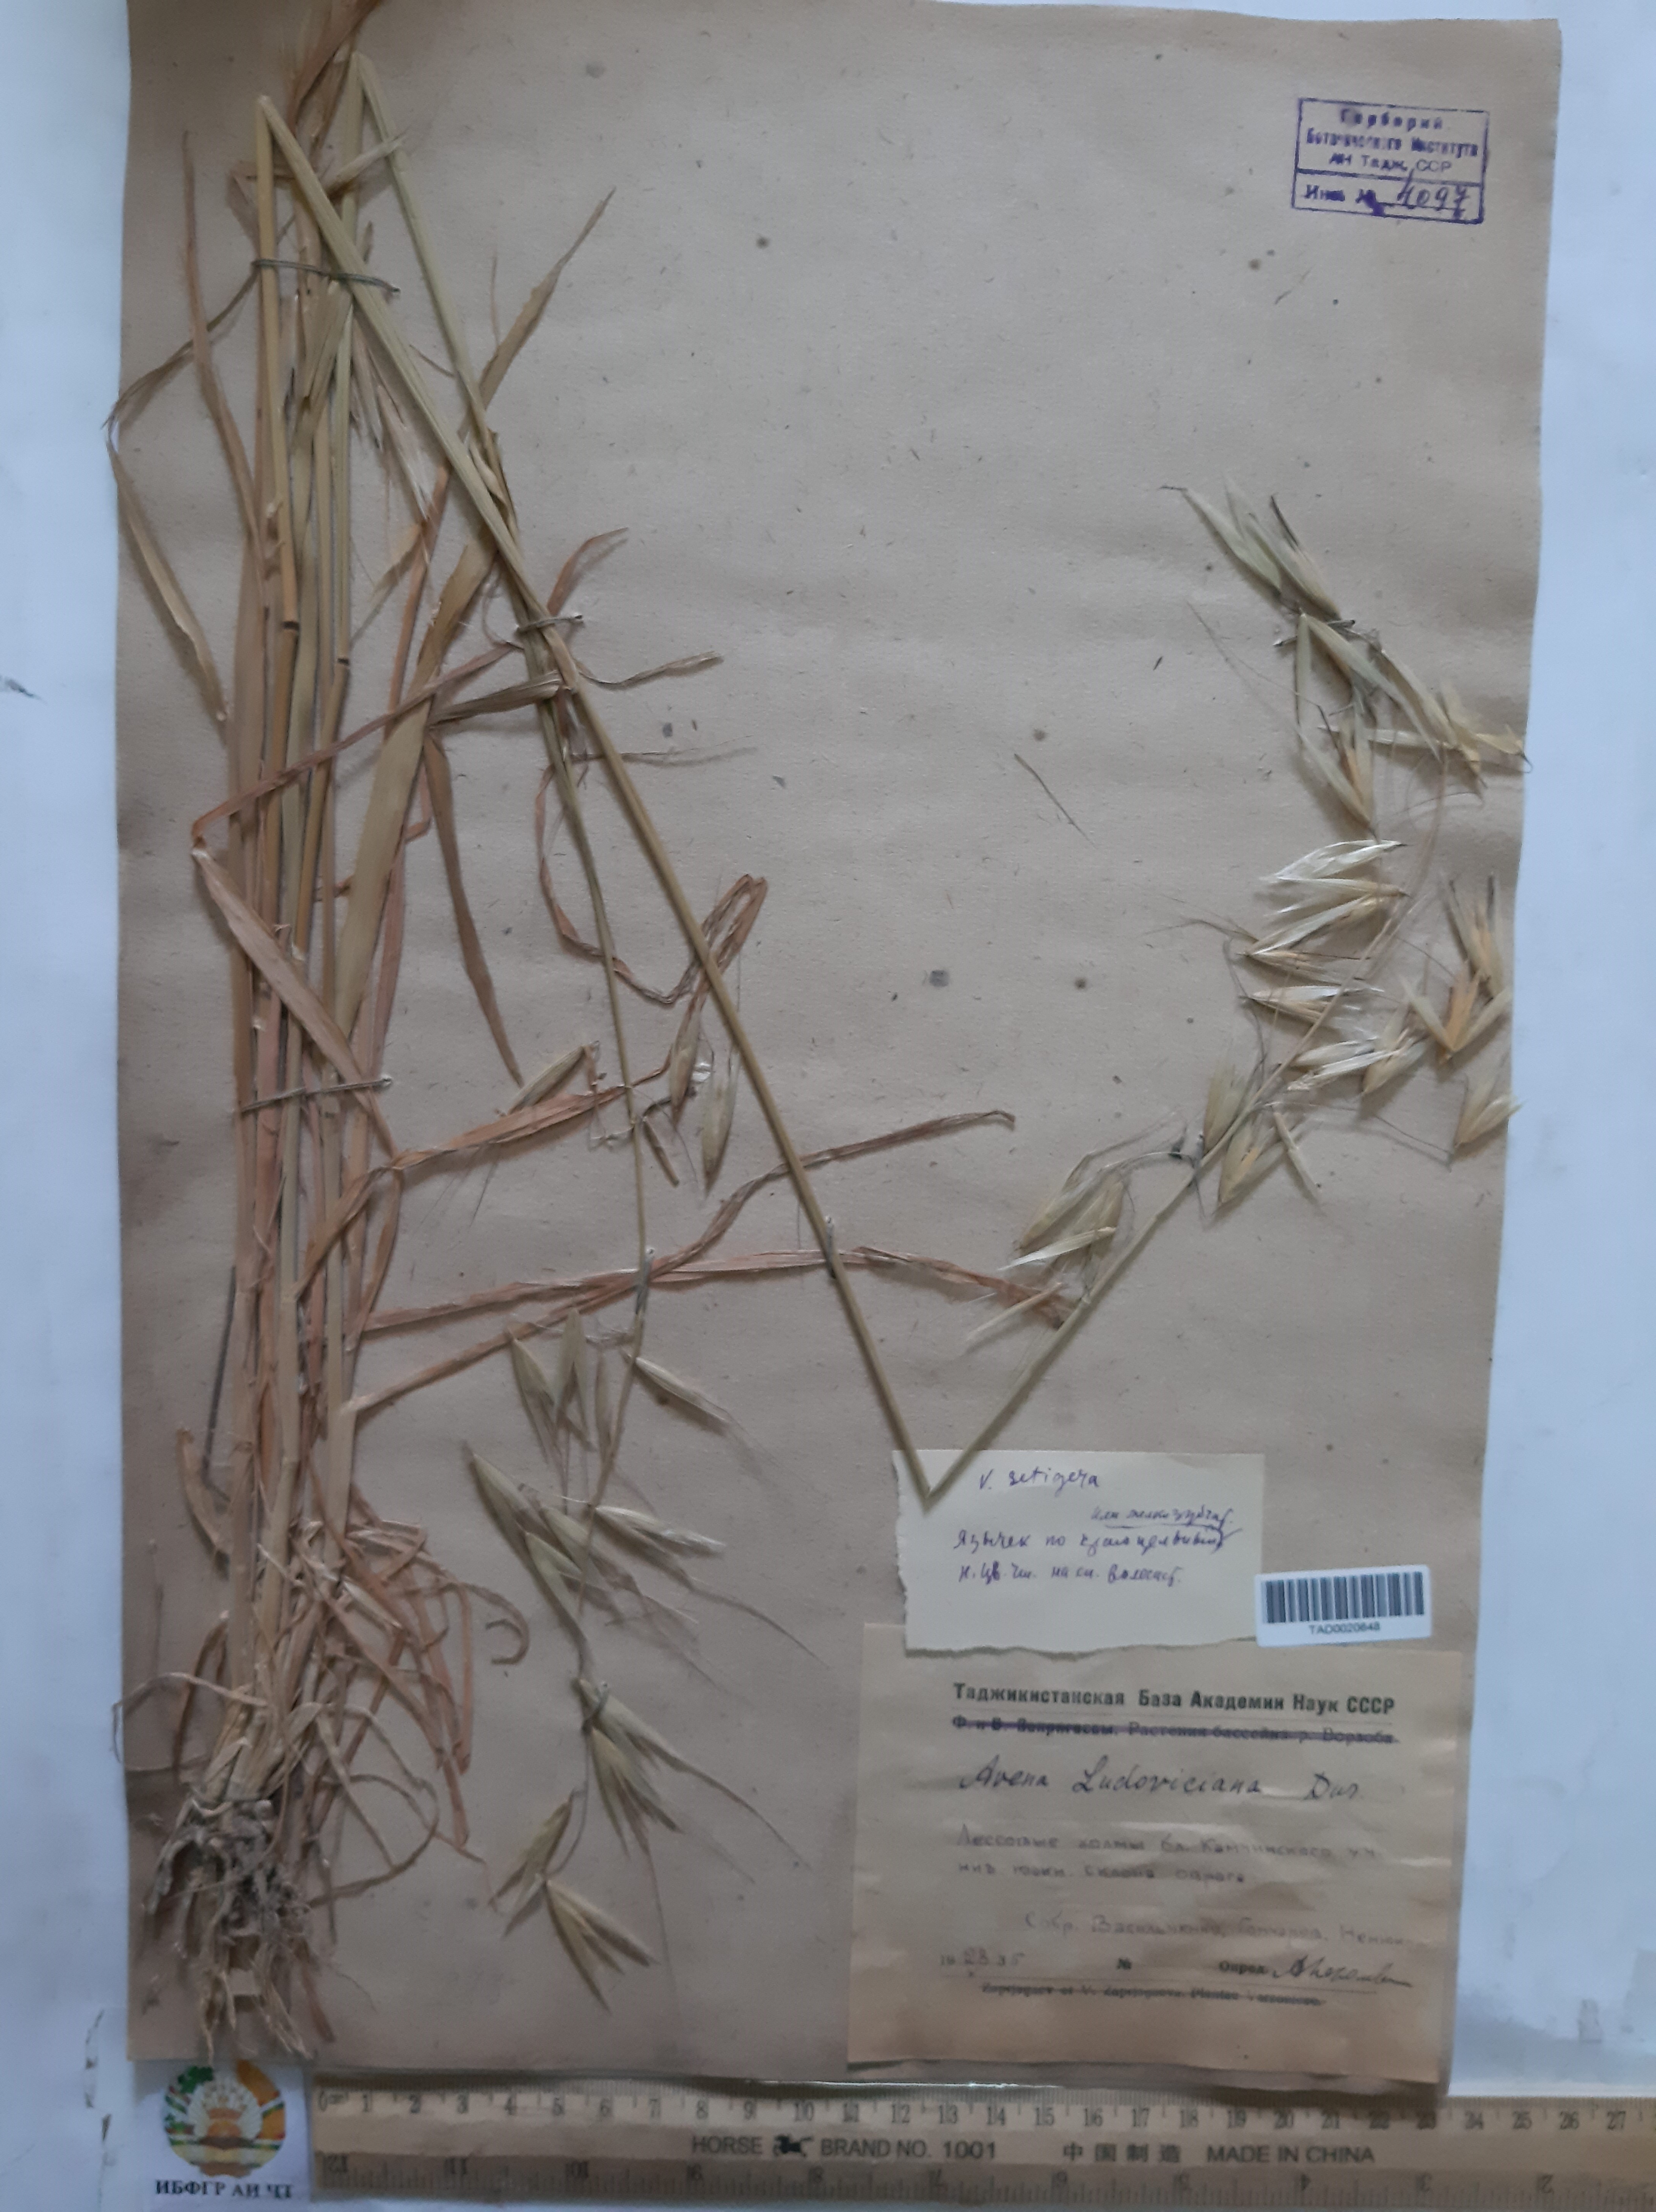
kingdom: Plantae
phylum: Tracheophyta
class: Liliopsida
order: Poales
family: Poaceae
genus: Avena
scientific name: Avena sterilis
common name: Animated oat
